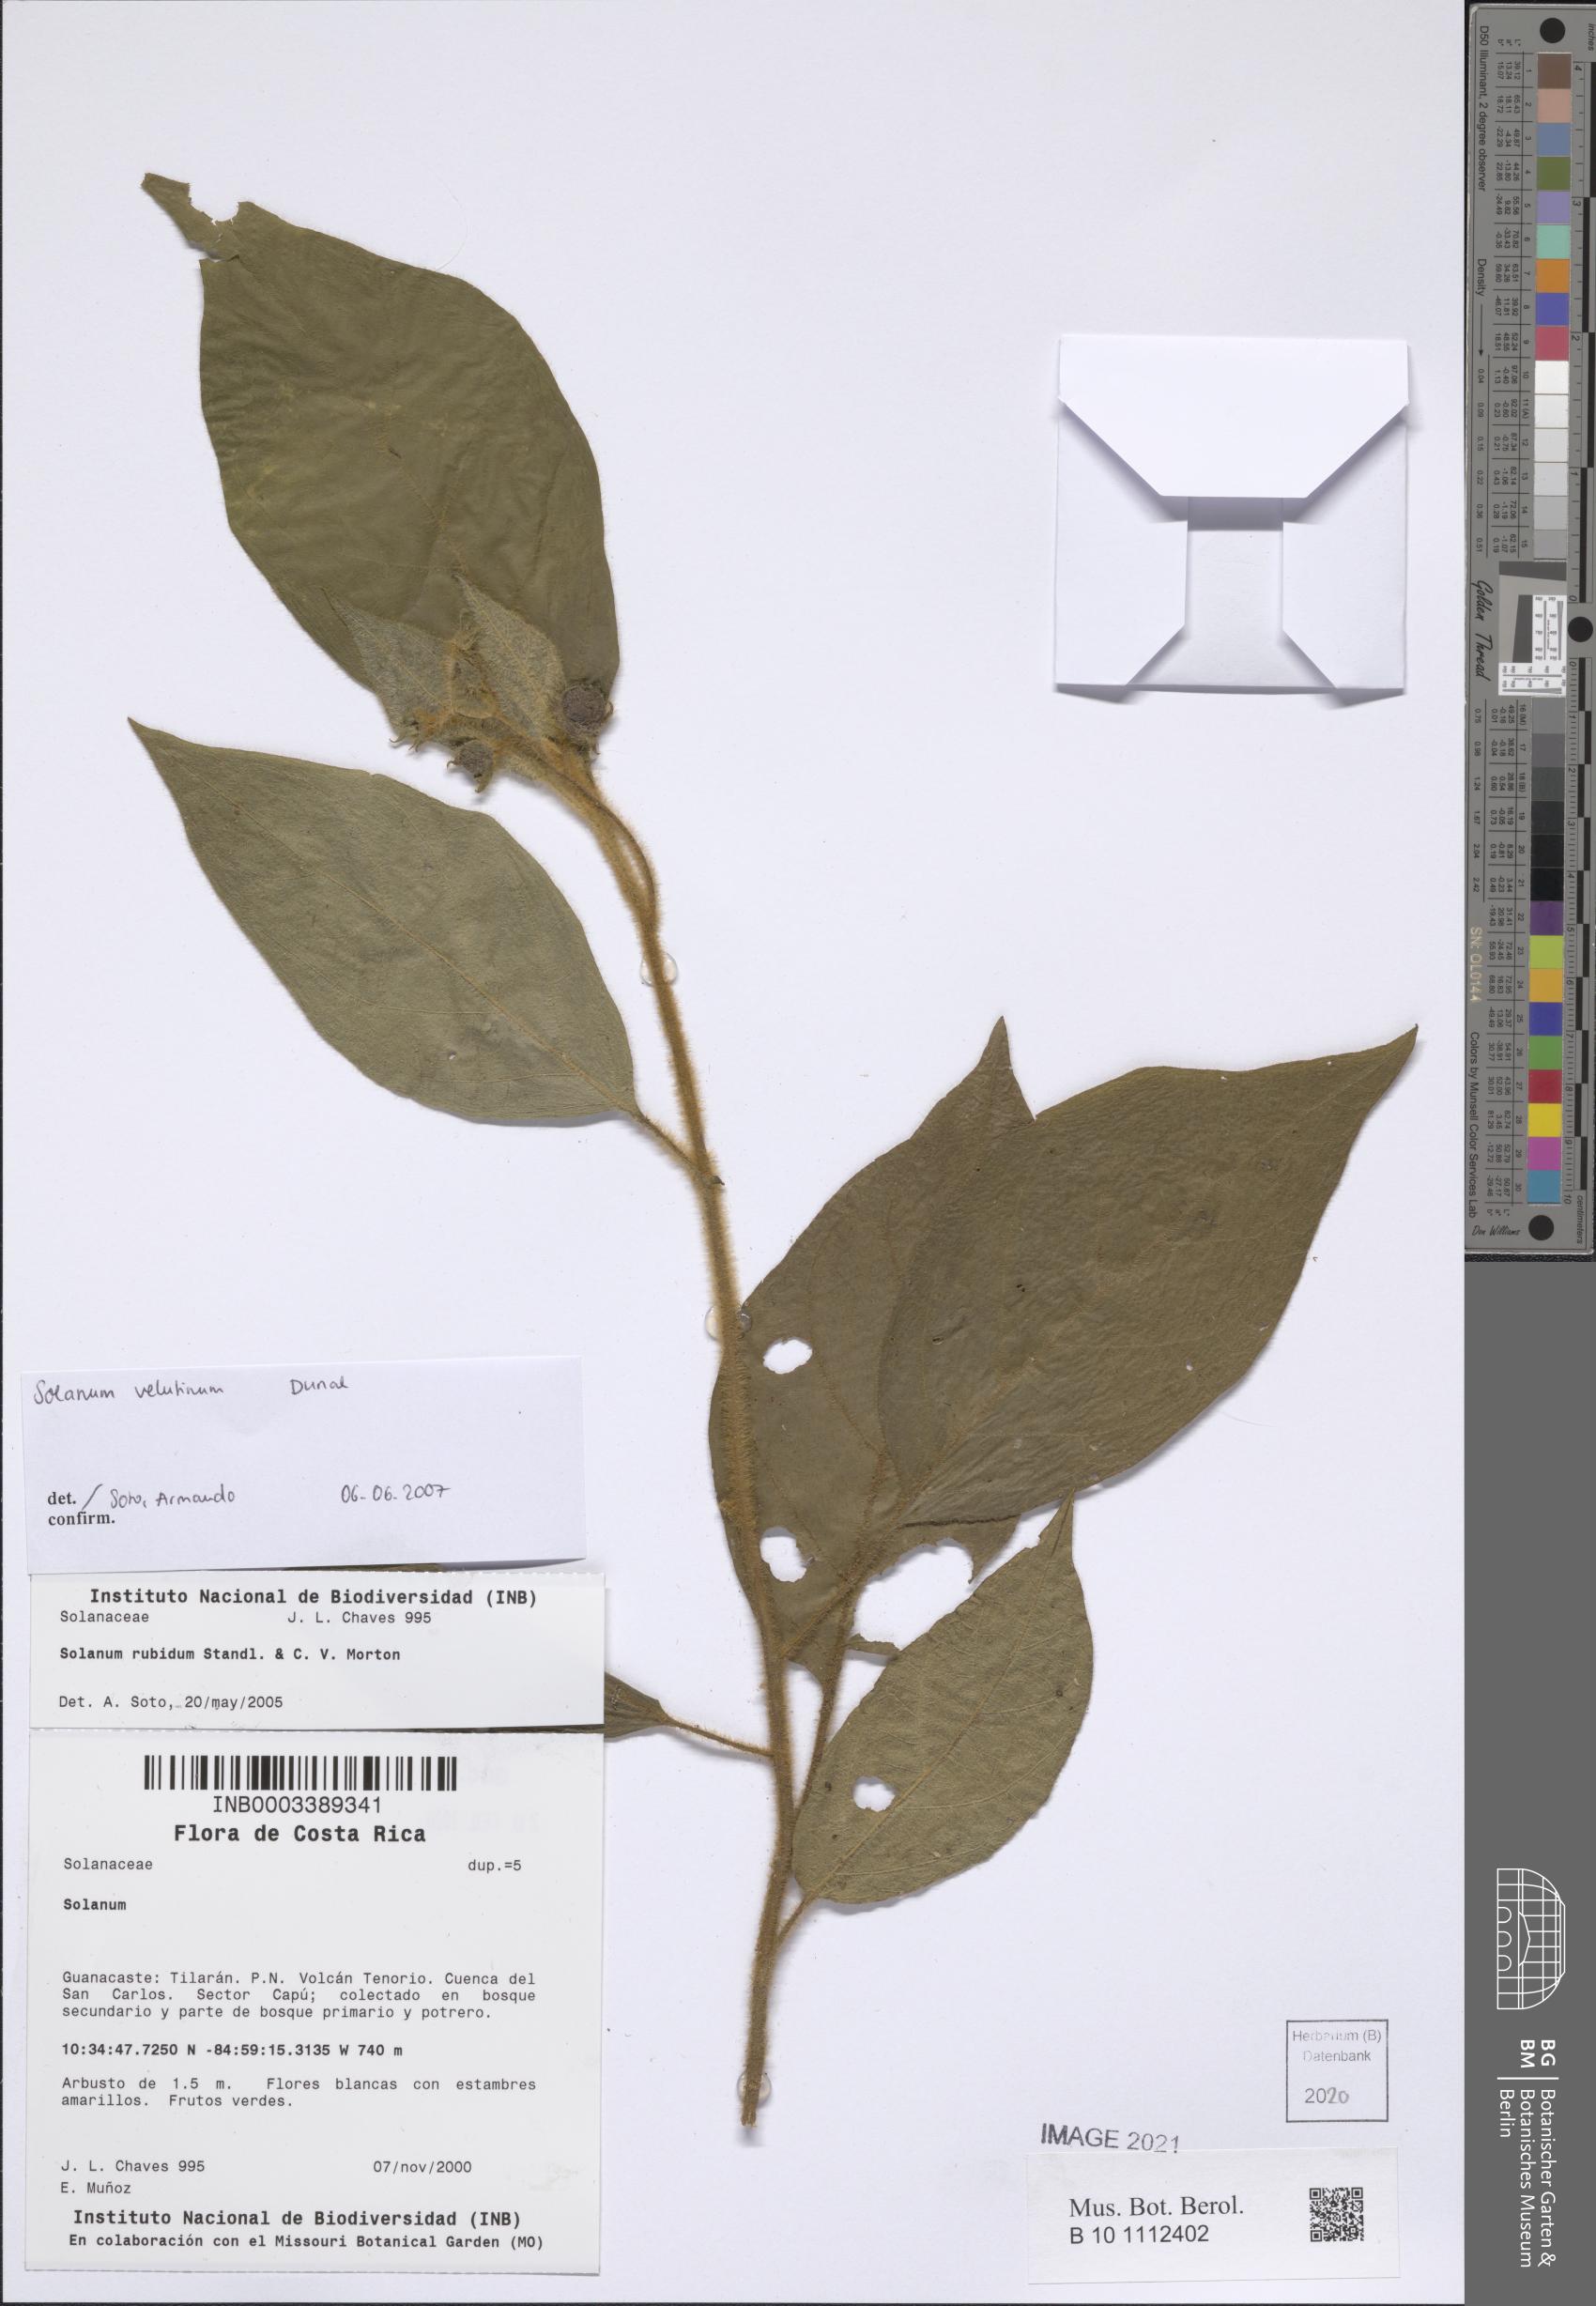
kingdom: Plantae
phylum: Tracheophyta
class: Magnoliopsida
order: Solanales
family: Solanaceae
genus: Solanum
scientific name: Solanum velutinum
